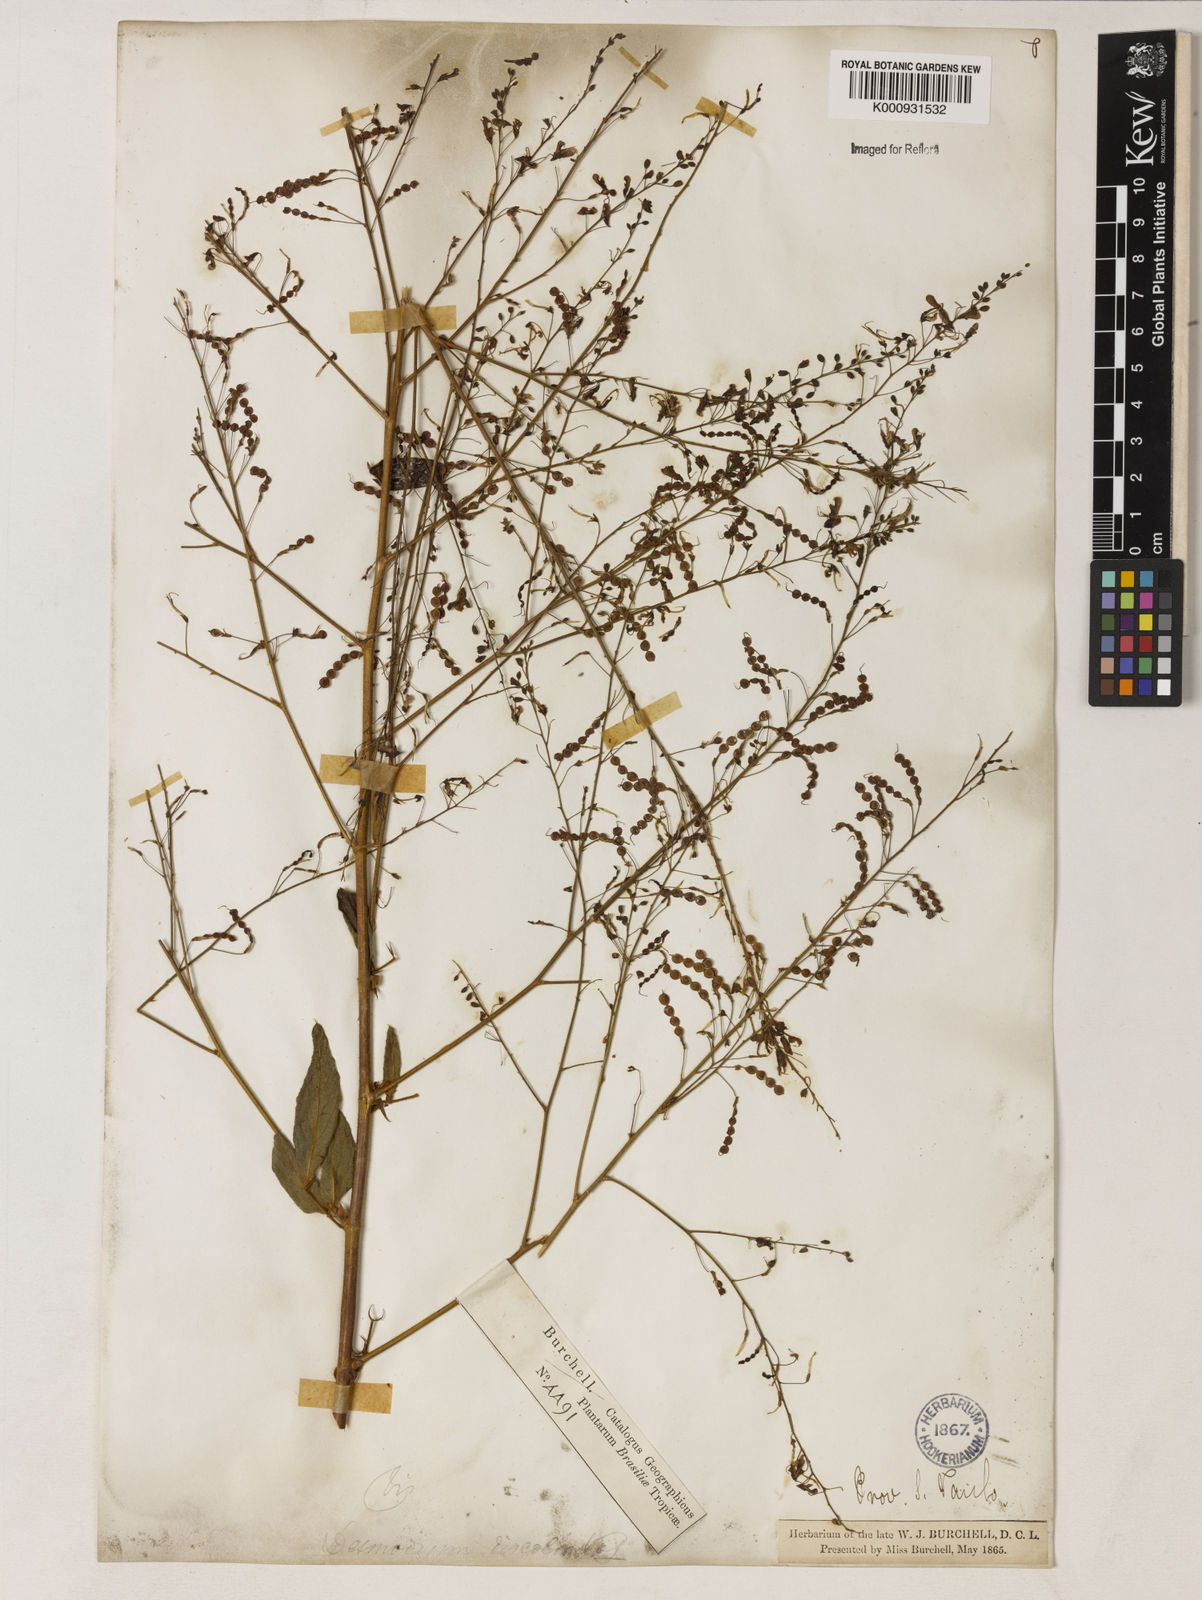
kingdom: Plantae
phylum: Tracheophyta
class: Magnoliopsida
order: Fabales
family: Fabaceae
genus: Desmodium
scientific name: Desmodium subsecundum
